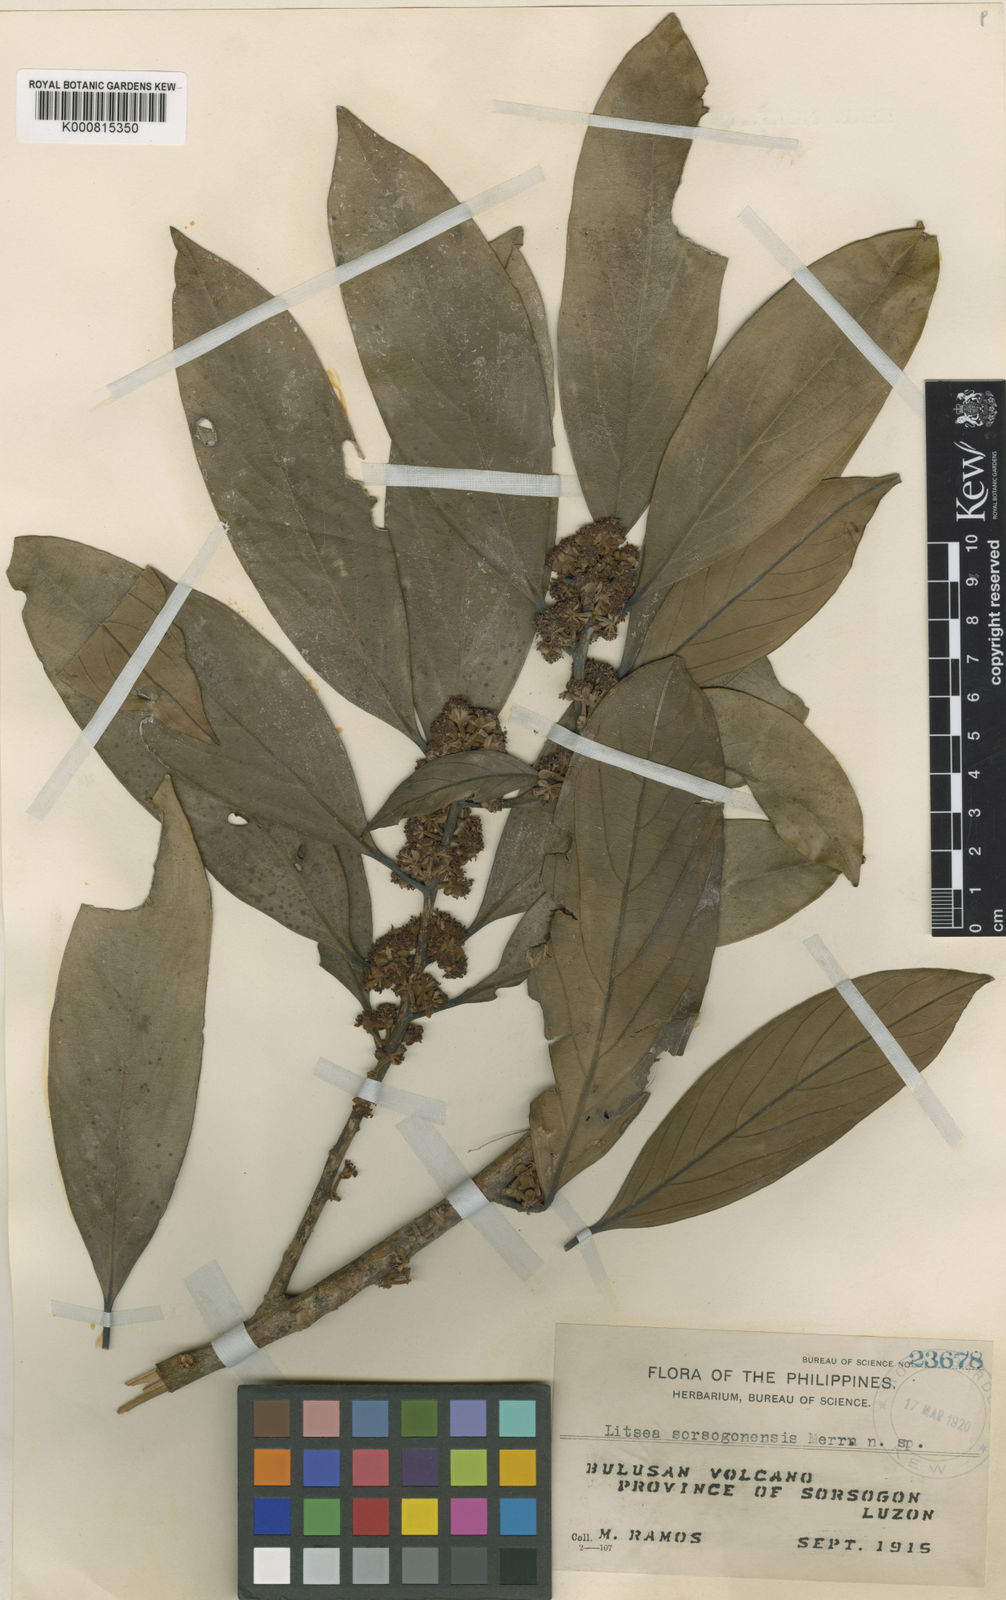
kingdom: Plantae
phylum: Tracheophyta
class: Magnoliopsida
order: Laurales
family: Lauraceae
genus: Litsea
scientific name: Litsea sorsogonensis
